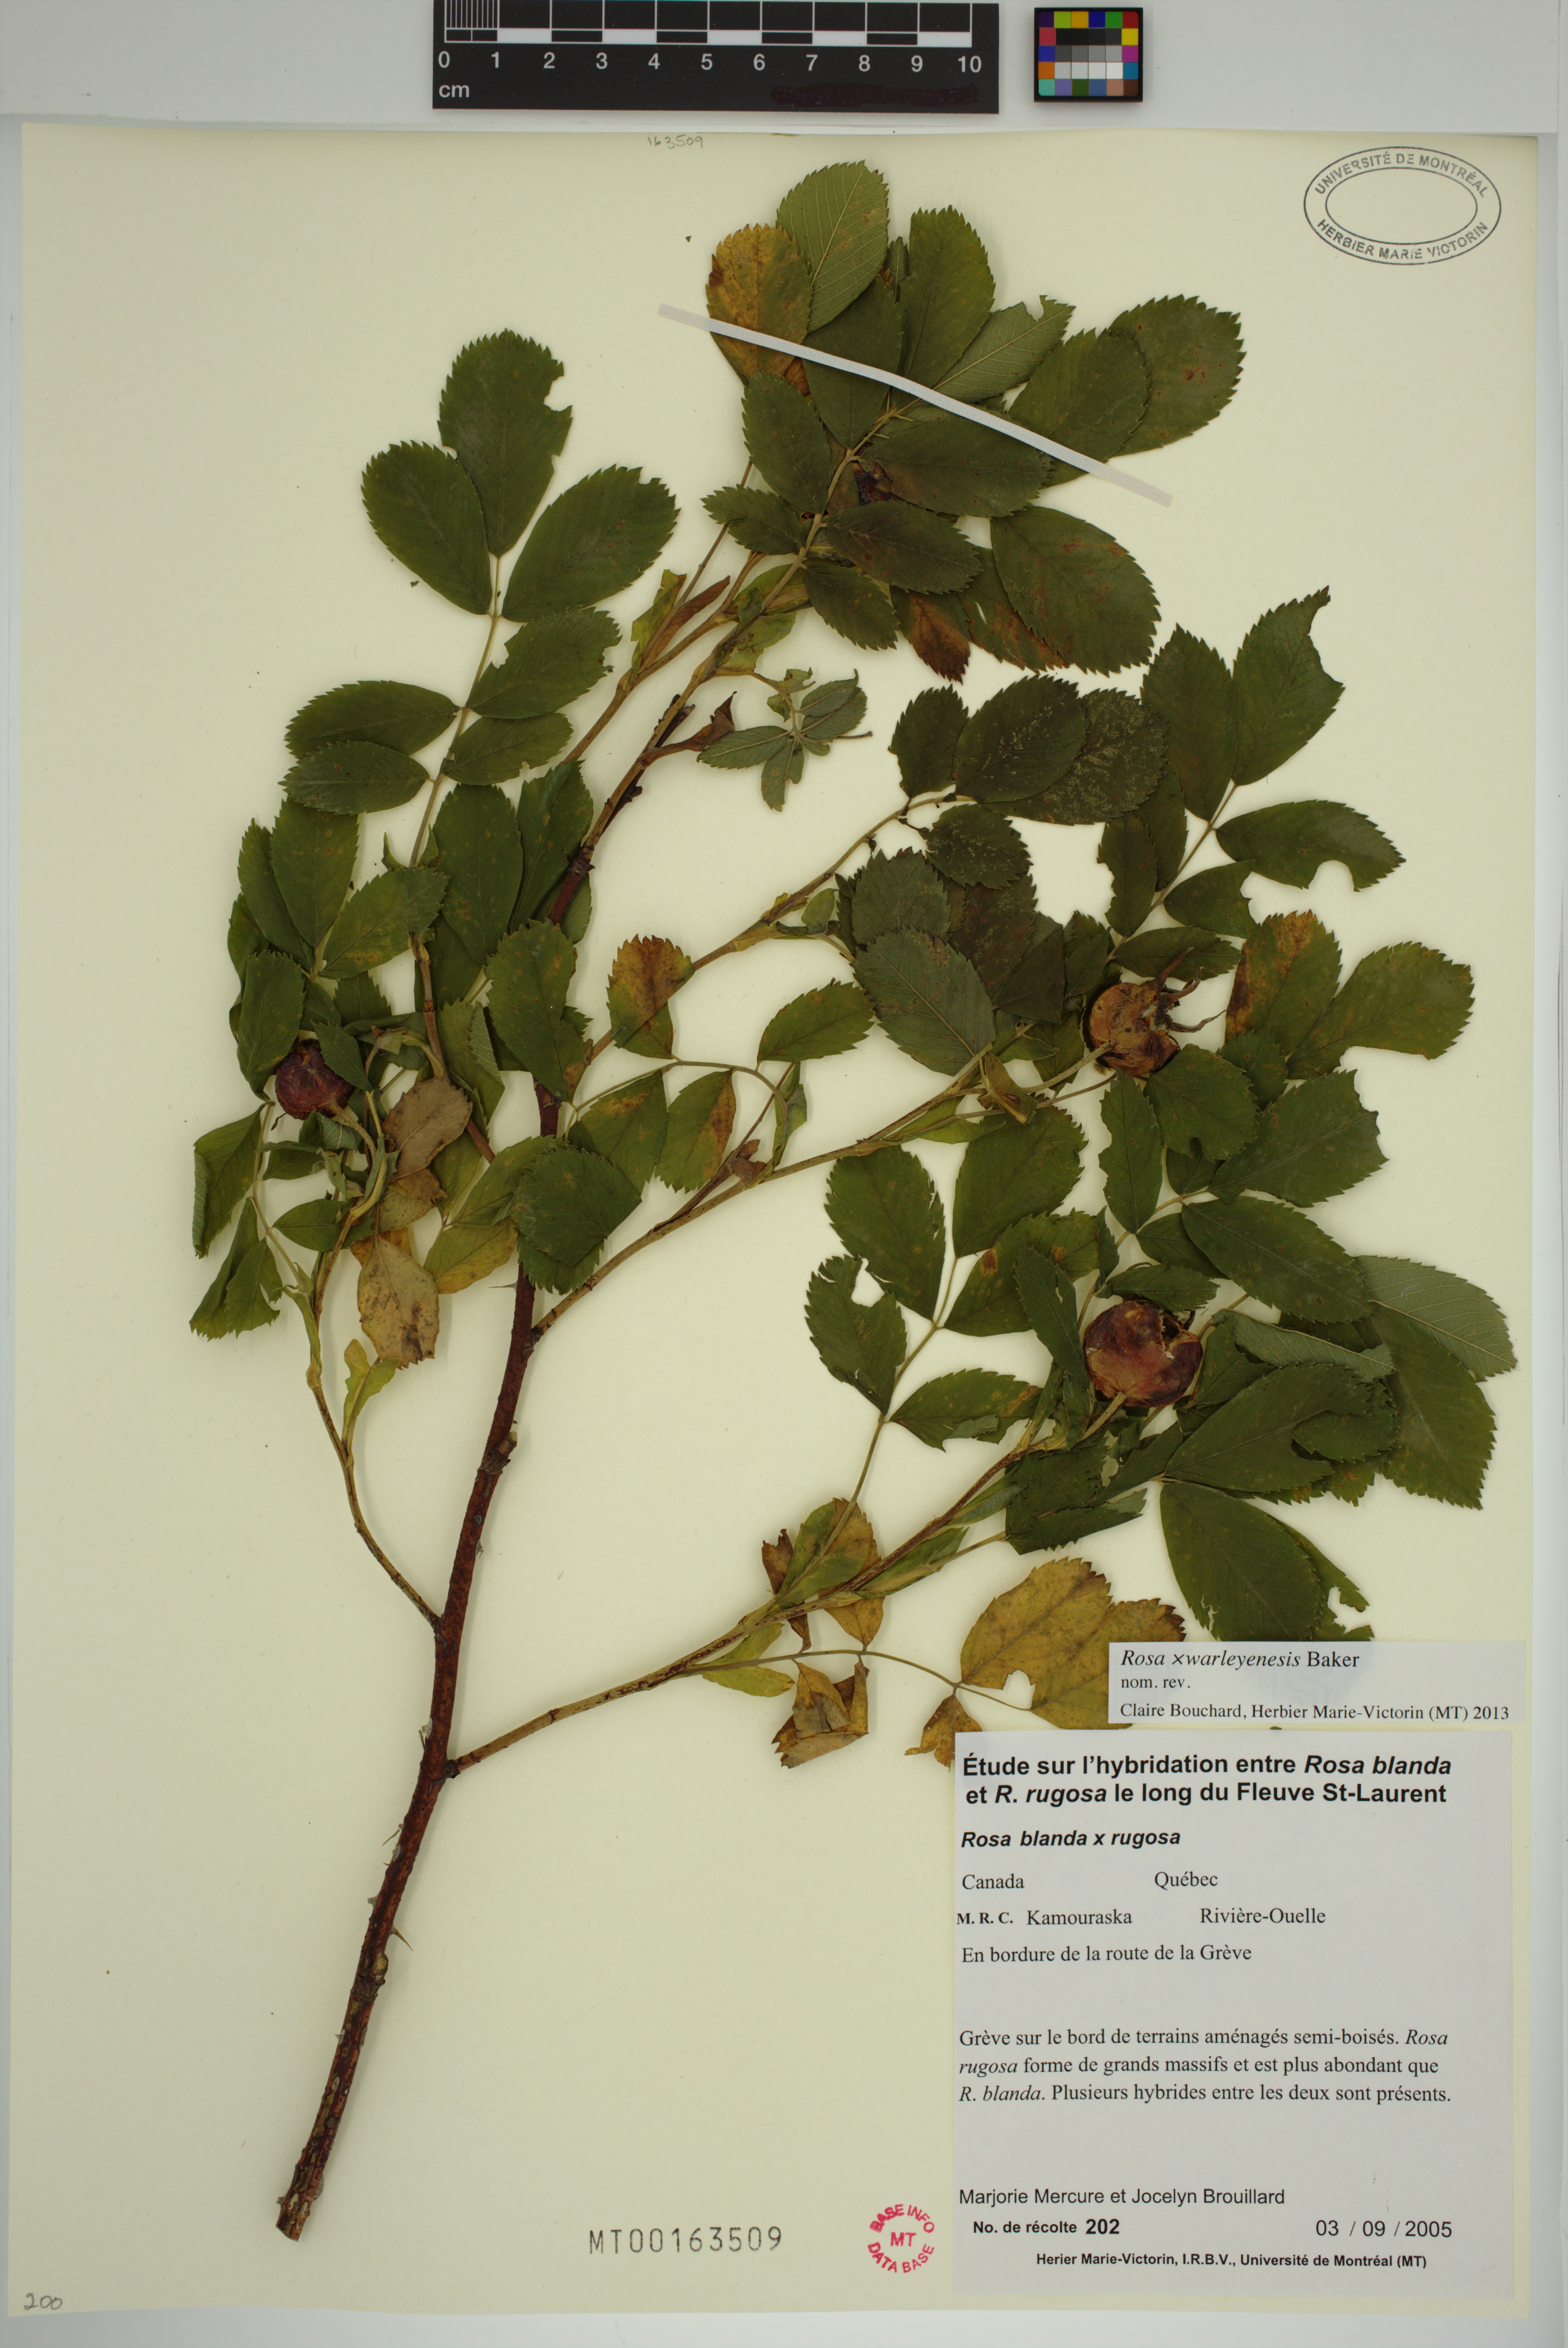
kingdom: Plantae
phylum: Tracheophyta
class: Magnoliopsida
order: Rosales
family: Rosaceae
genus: Rosa
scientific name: Rosa warleyensis
